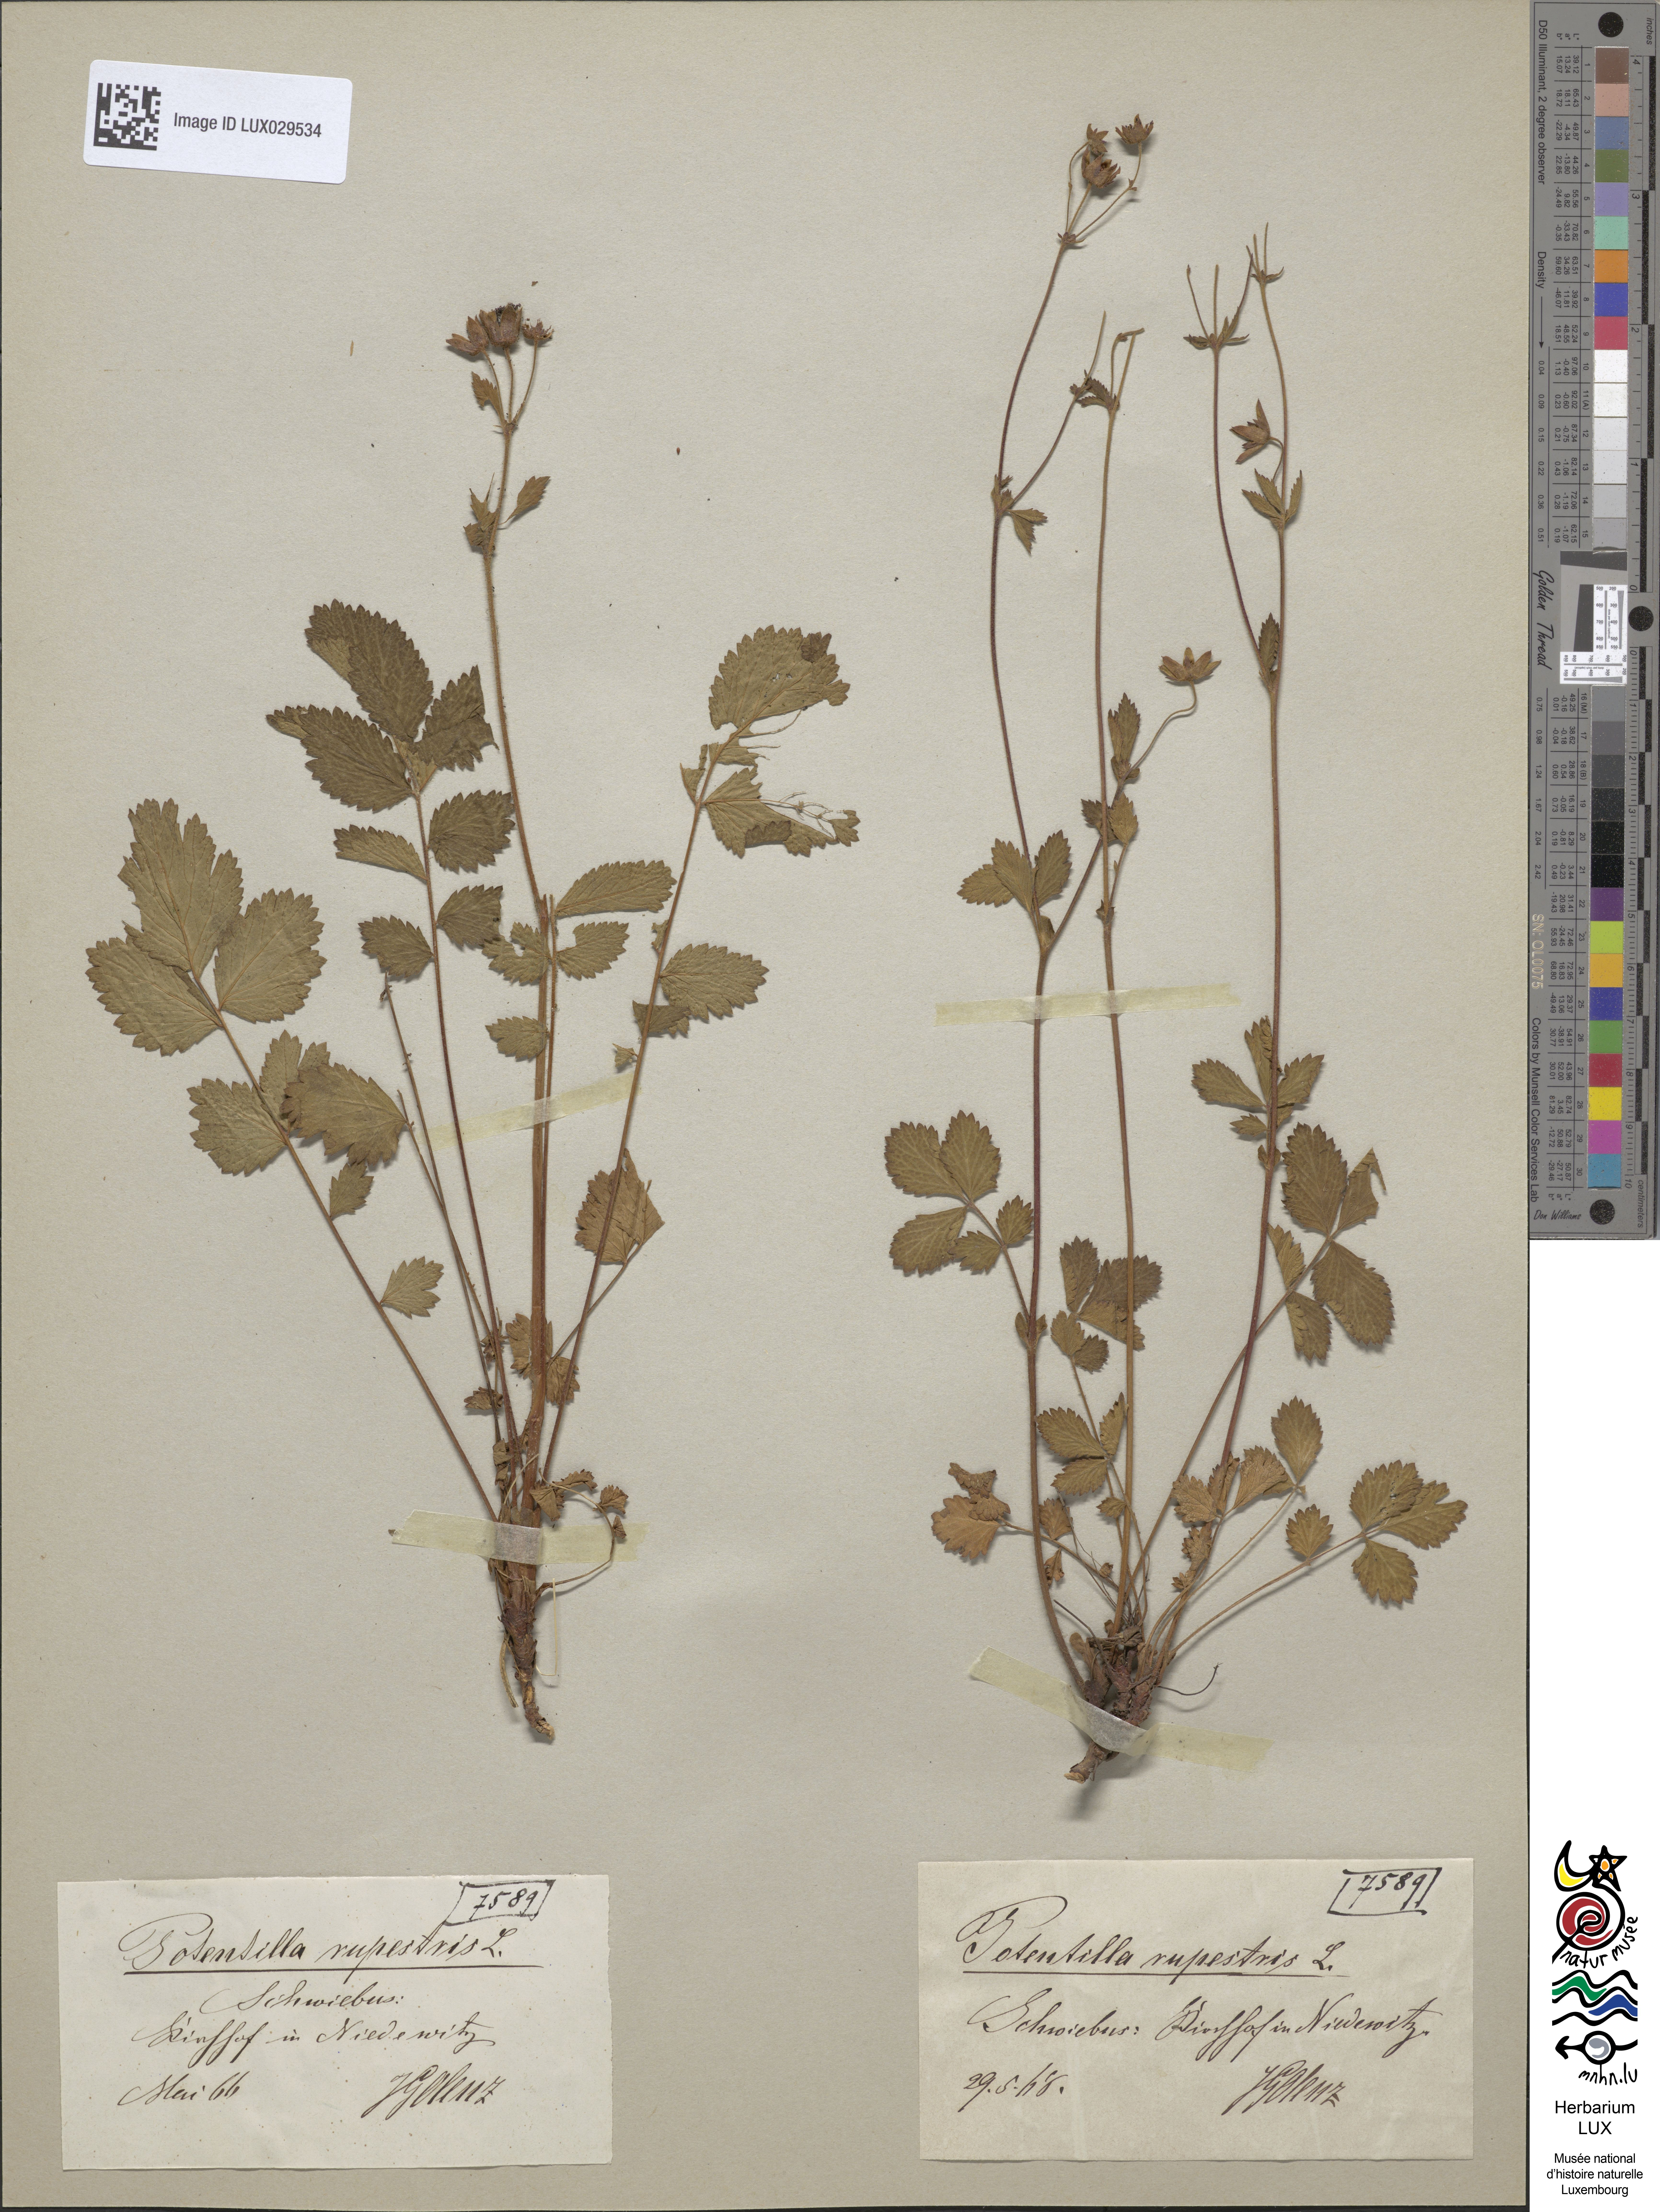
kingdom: Plantae
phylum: Tracheophyta
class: Magnoliopsida
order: Rosales
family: Rosaceae
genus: Drymocallis
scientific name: Drymocallis rupestris
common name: Rock cinquefoil
